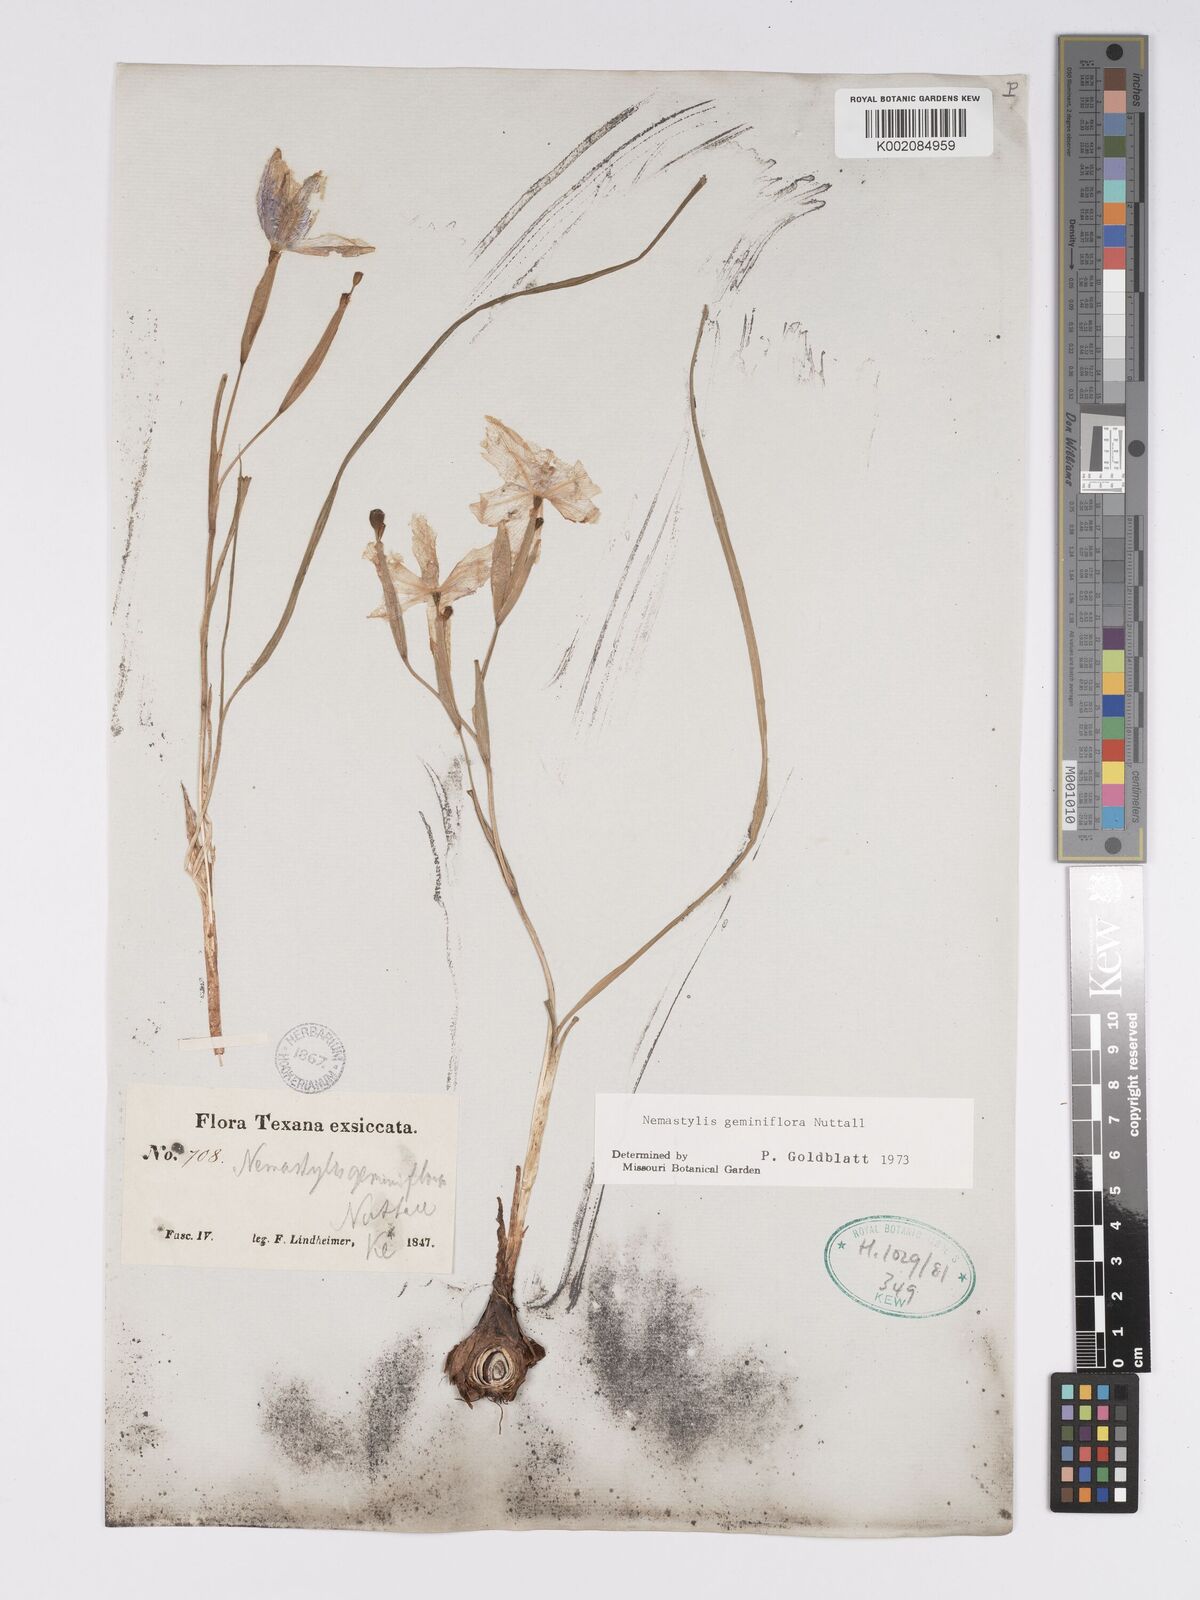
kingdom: Plantae
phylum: Tracheophyta
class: Liliopsida
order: Asparagales
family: Iridaceae
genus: Nemastylis
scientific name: Nemastylis geminiflora
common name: Prairie celestial
